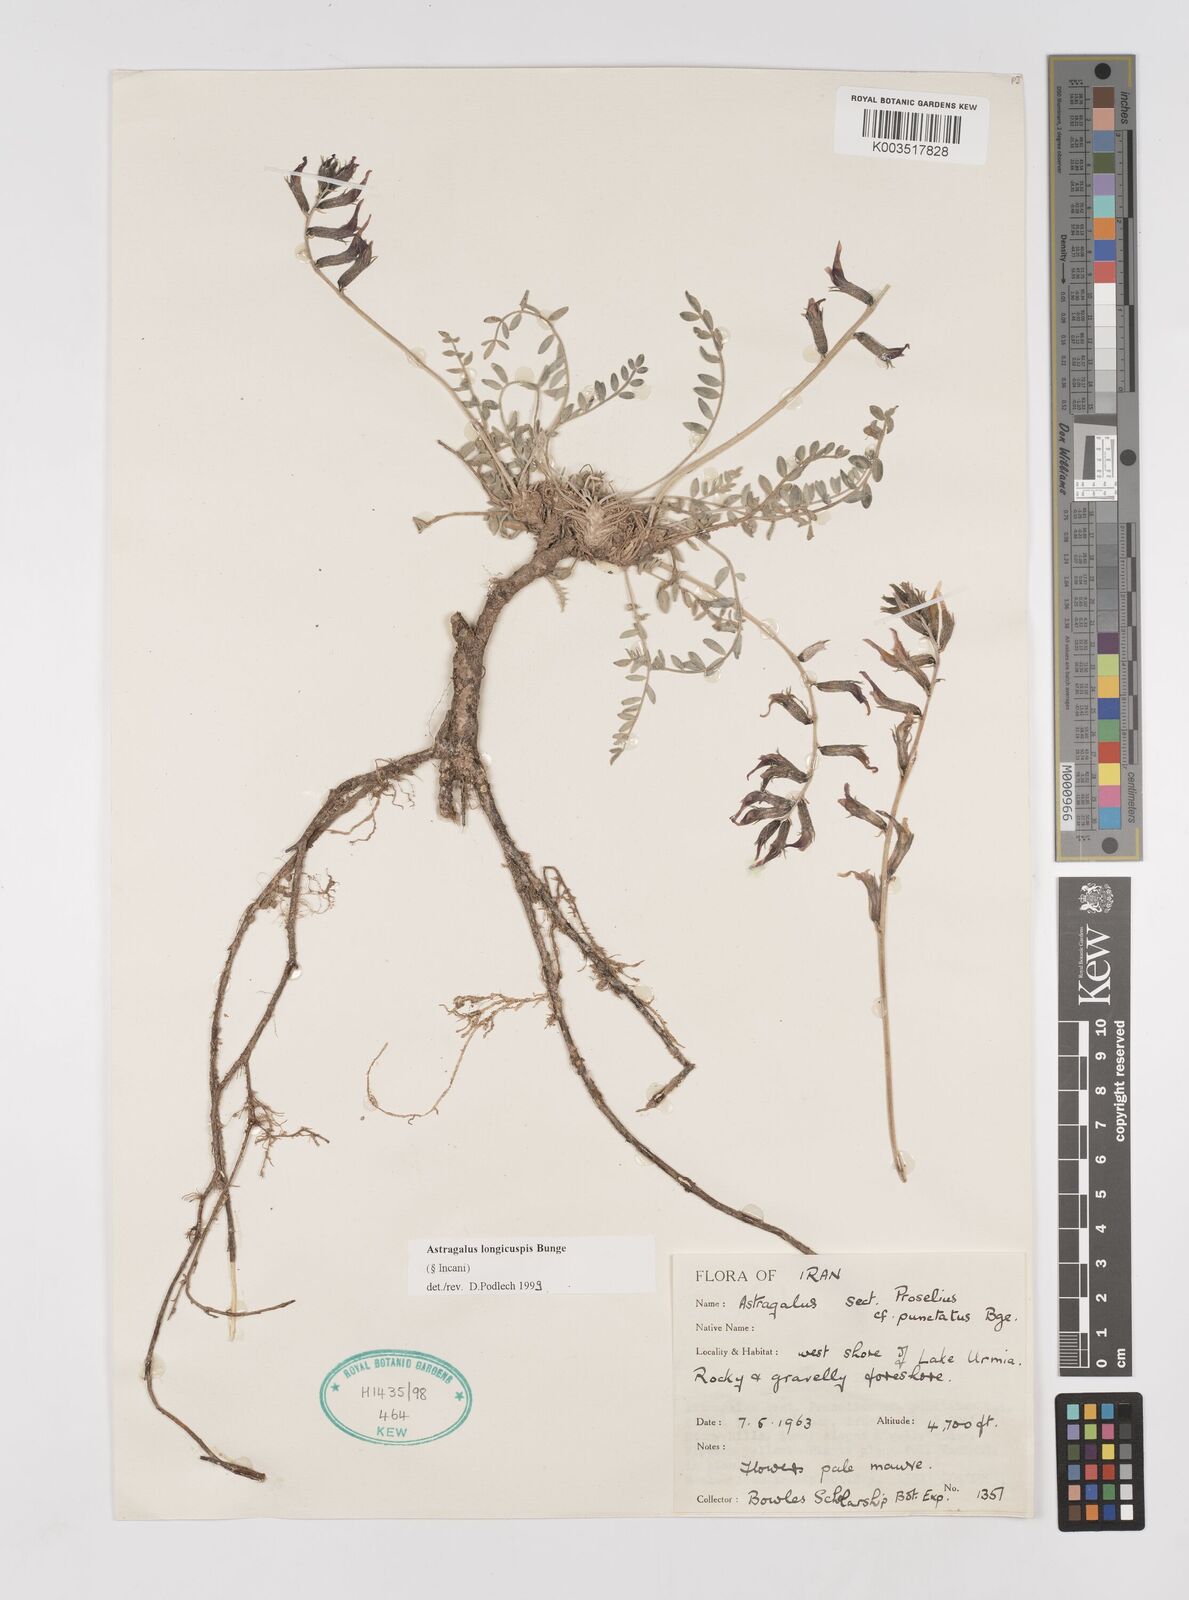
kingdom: Plantae
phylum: Tracheophyta
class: Magnoliopsida
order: Fabales
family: Fabaceae
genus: Astragalus
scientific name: Astragalus longicuspis
